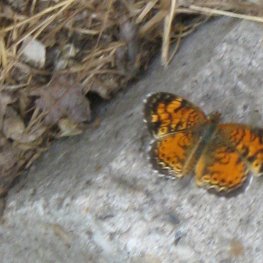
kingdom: Animalia
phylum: Arthropoda
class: Insecta
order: Lepidoptera
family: Nymphalidae
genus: Phyciodes
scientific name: Phyciodes tharos
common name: Pearl Crescent
